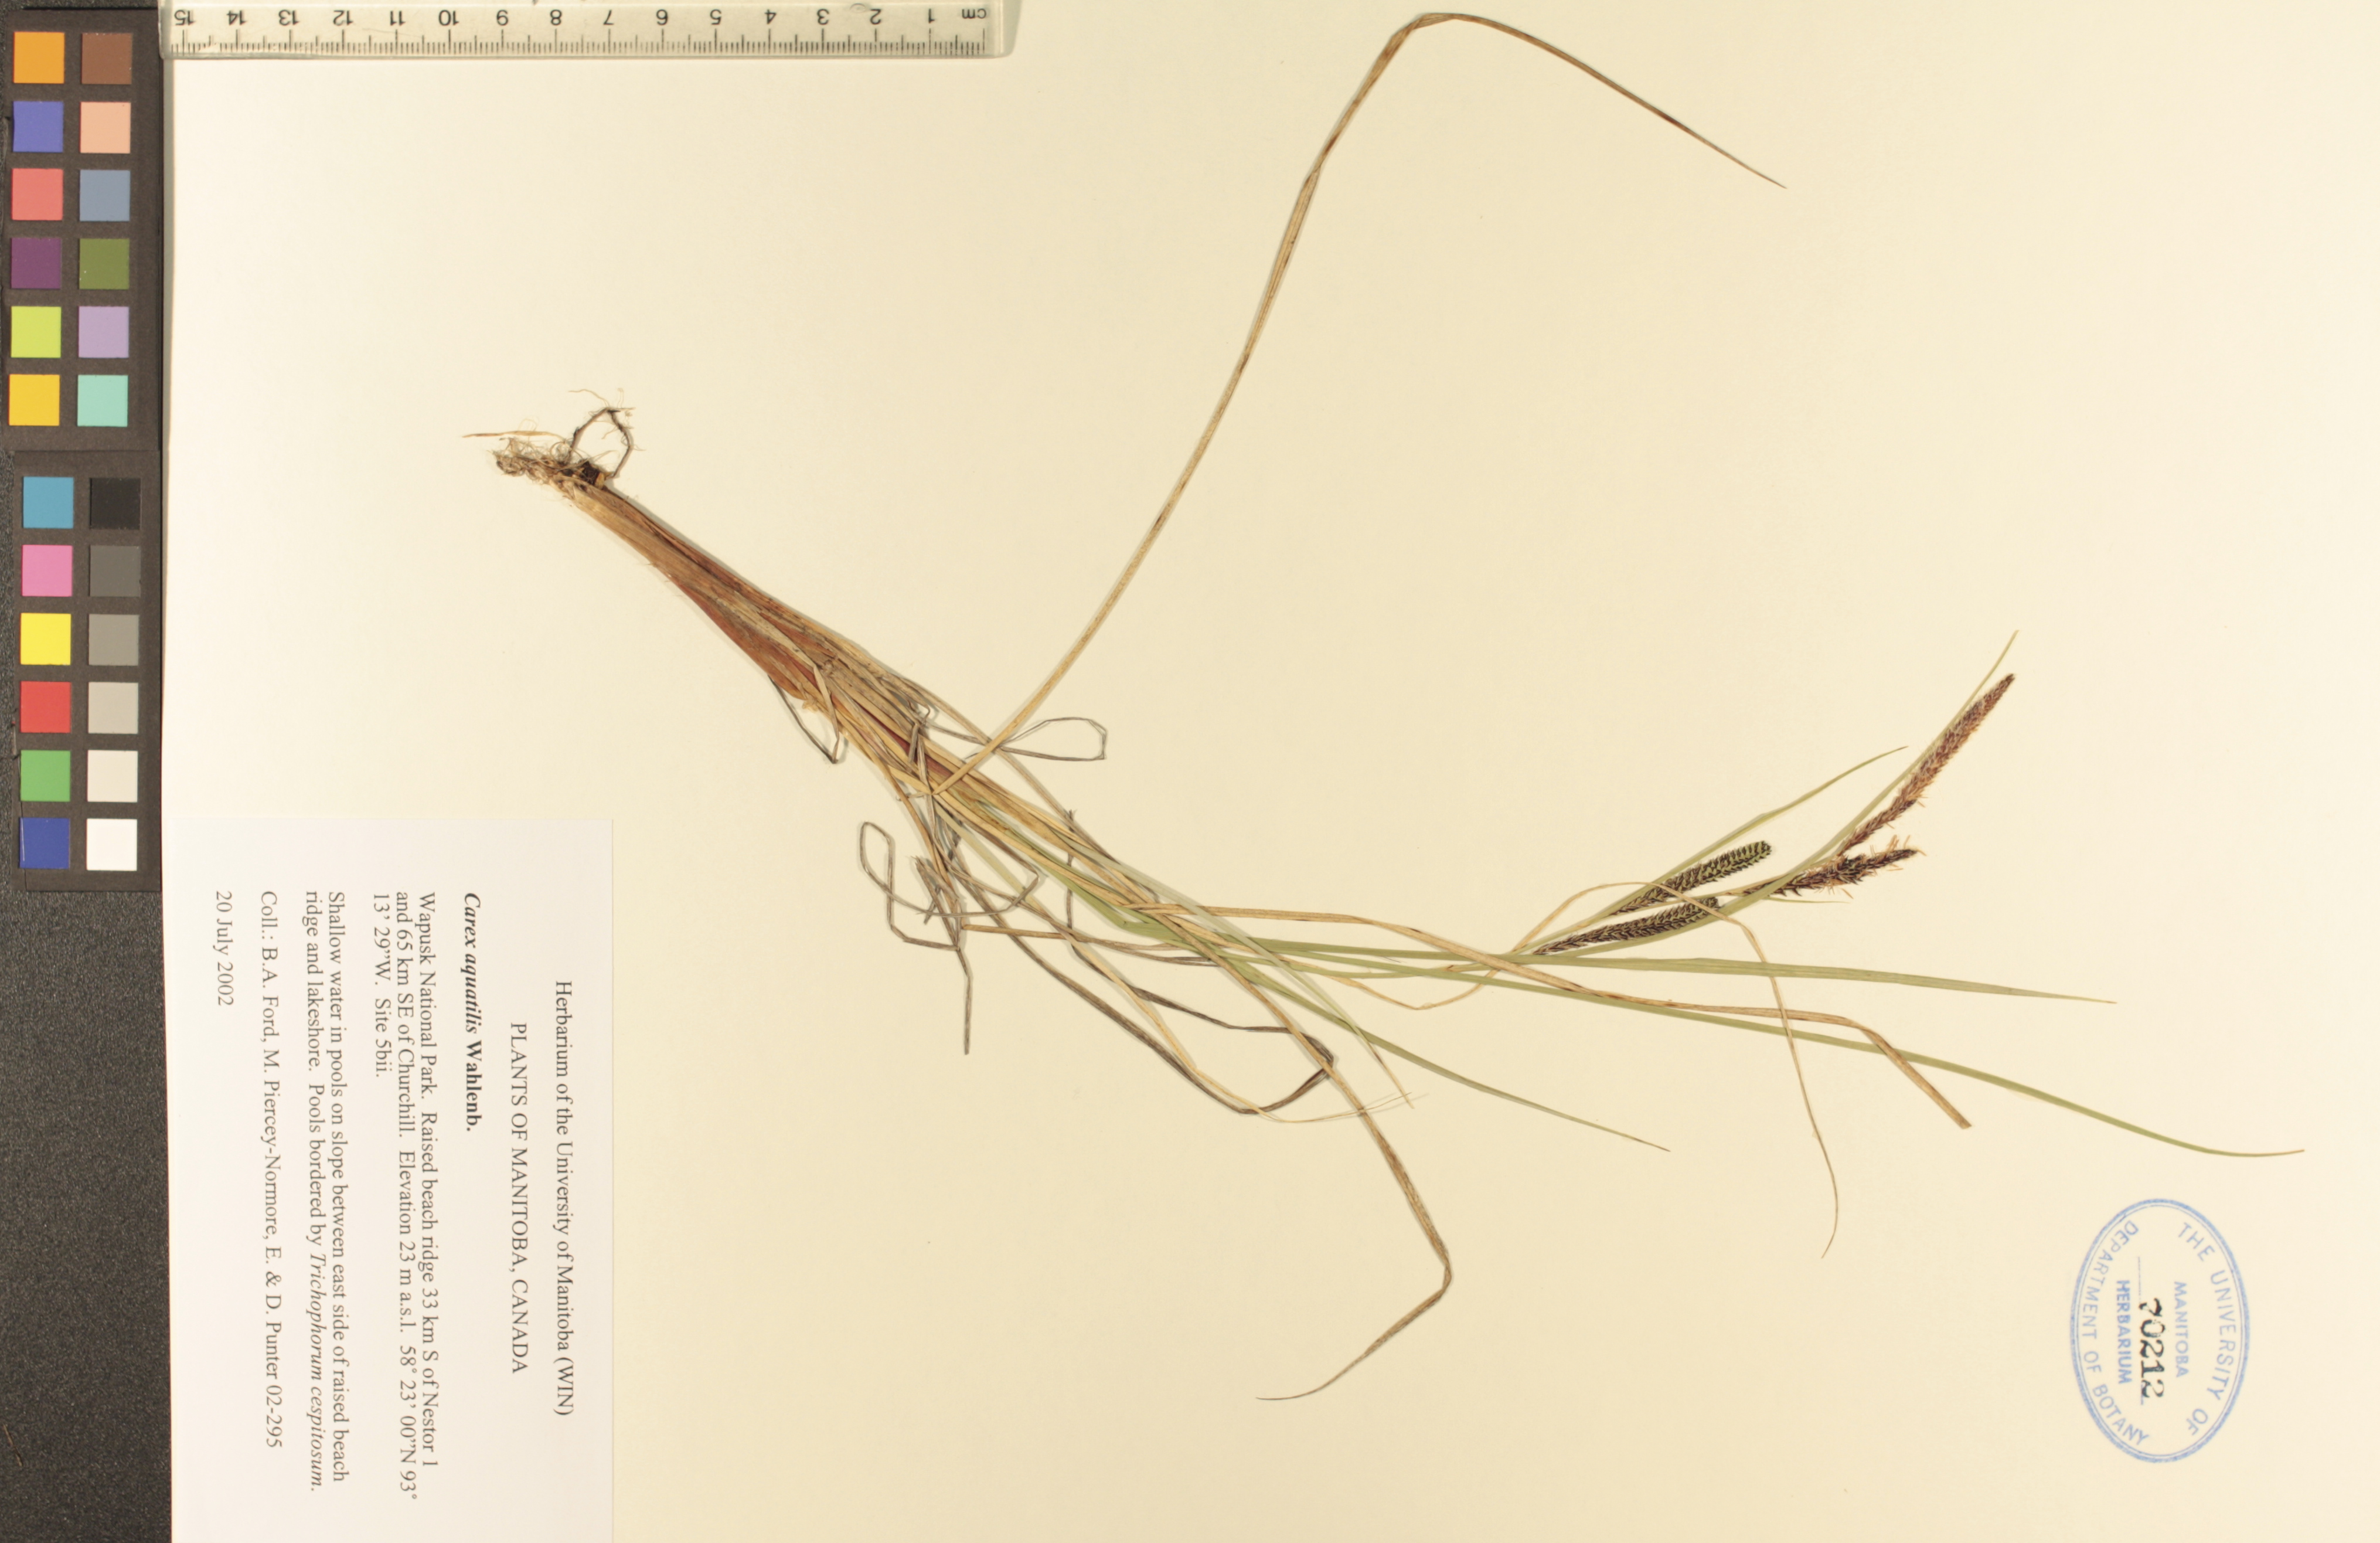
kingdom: Plantae
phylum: Tracheophyta
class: Liliopsida
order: Poales
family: Cyperaceae
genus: Carex
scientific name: Carex aquatilis
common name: Water sedge
